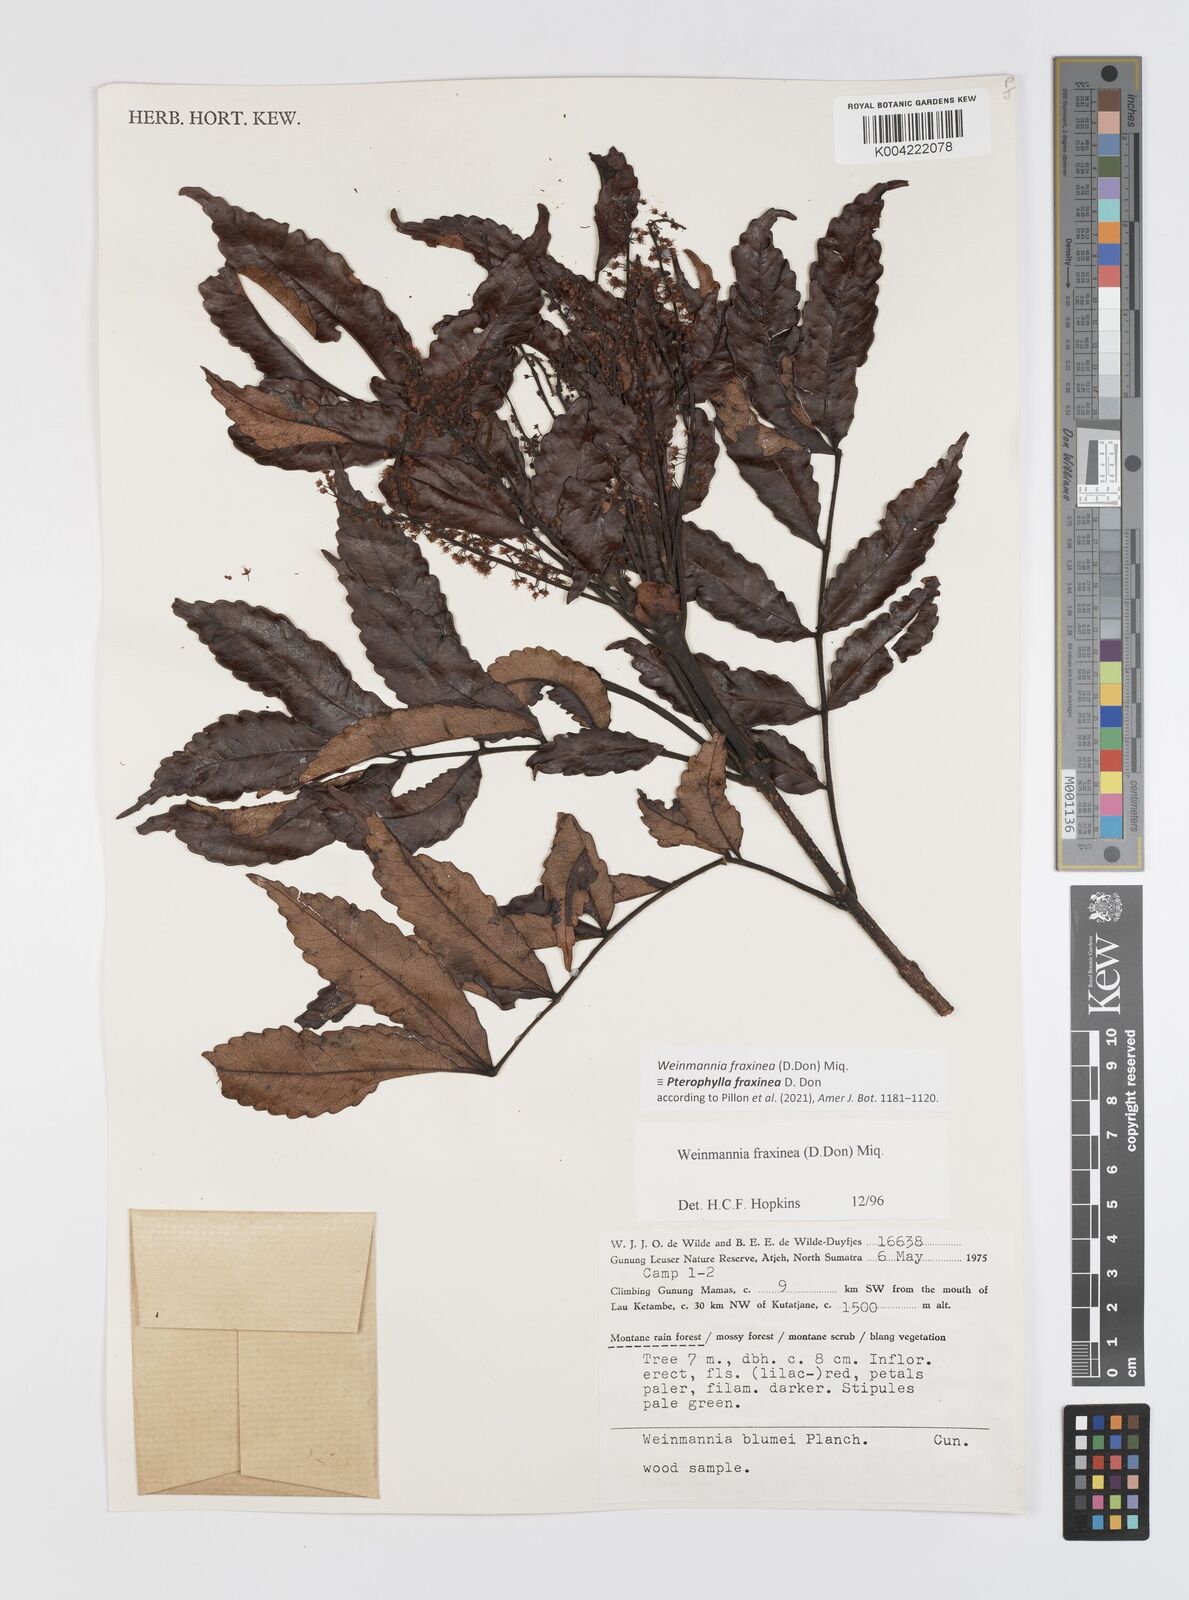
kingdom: Plantae
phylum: Tracheophyta
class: Magnoliopsida
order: Oxalidales
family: Cunoniaceae
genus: Pterophylla
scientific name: Pterophylla fraxinea
